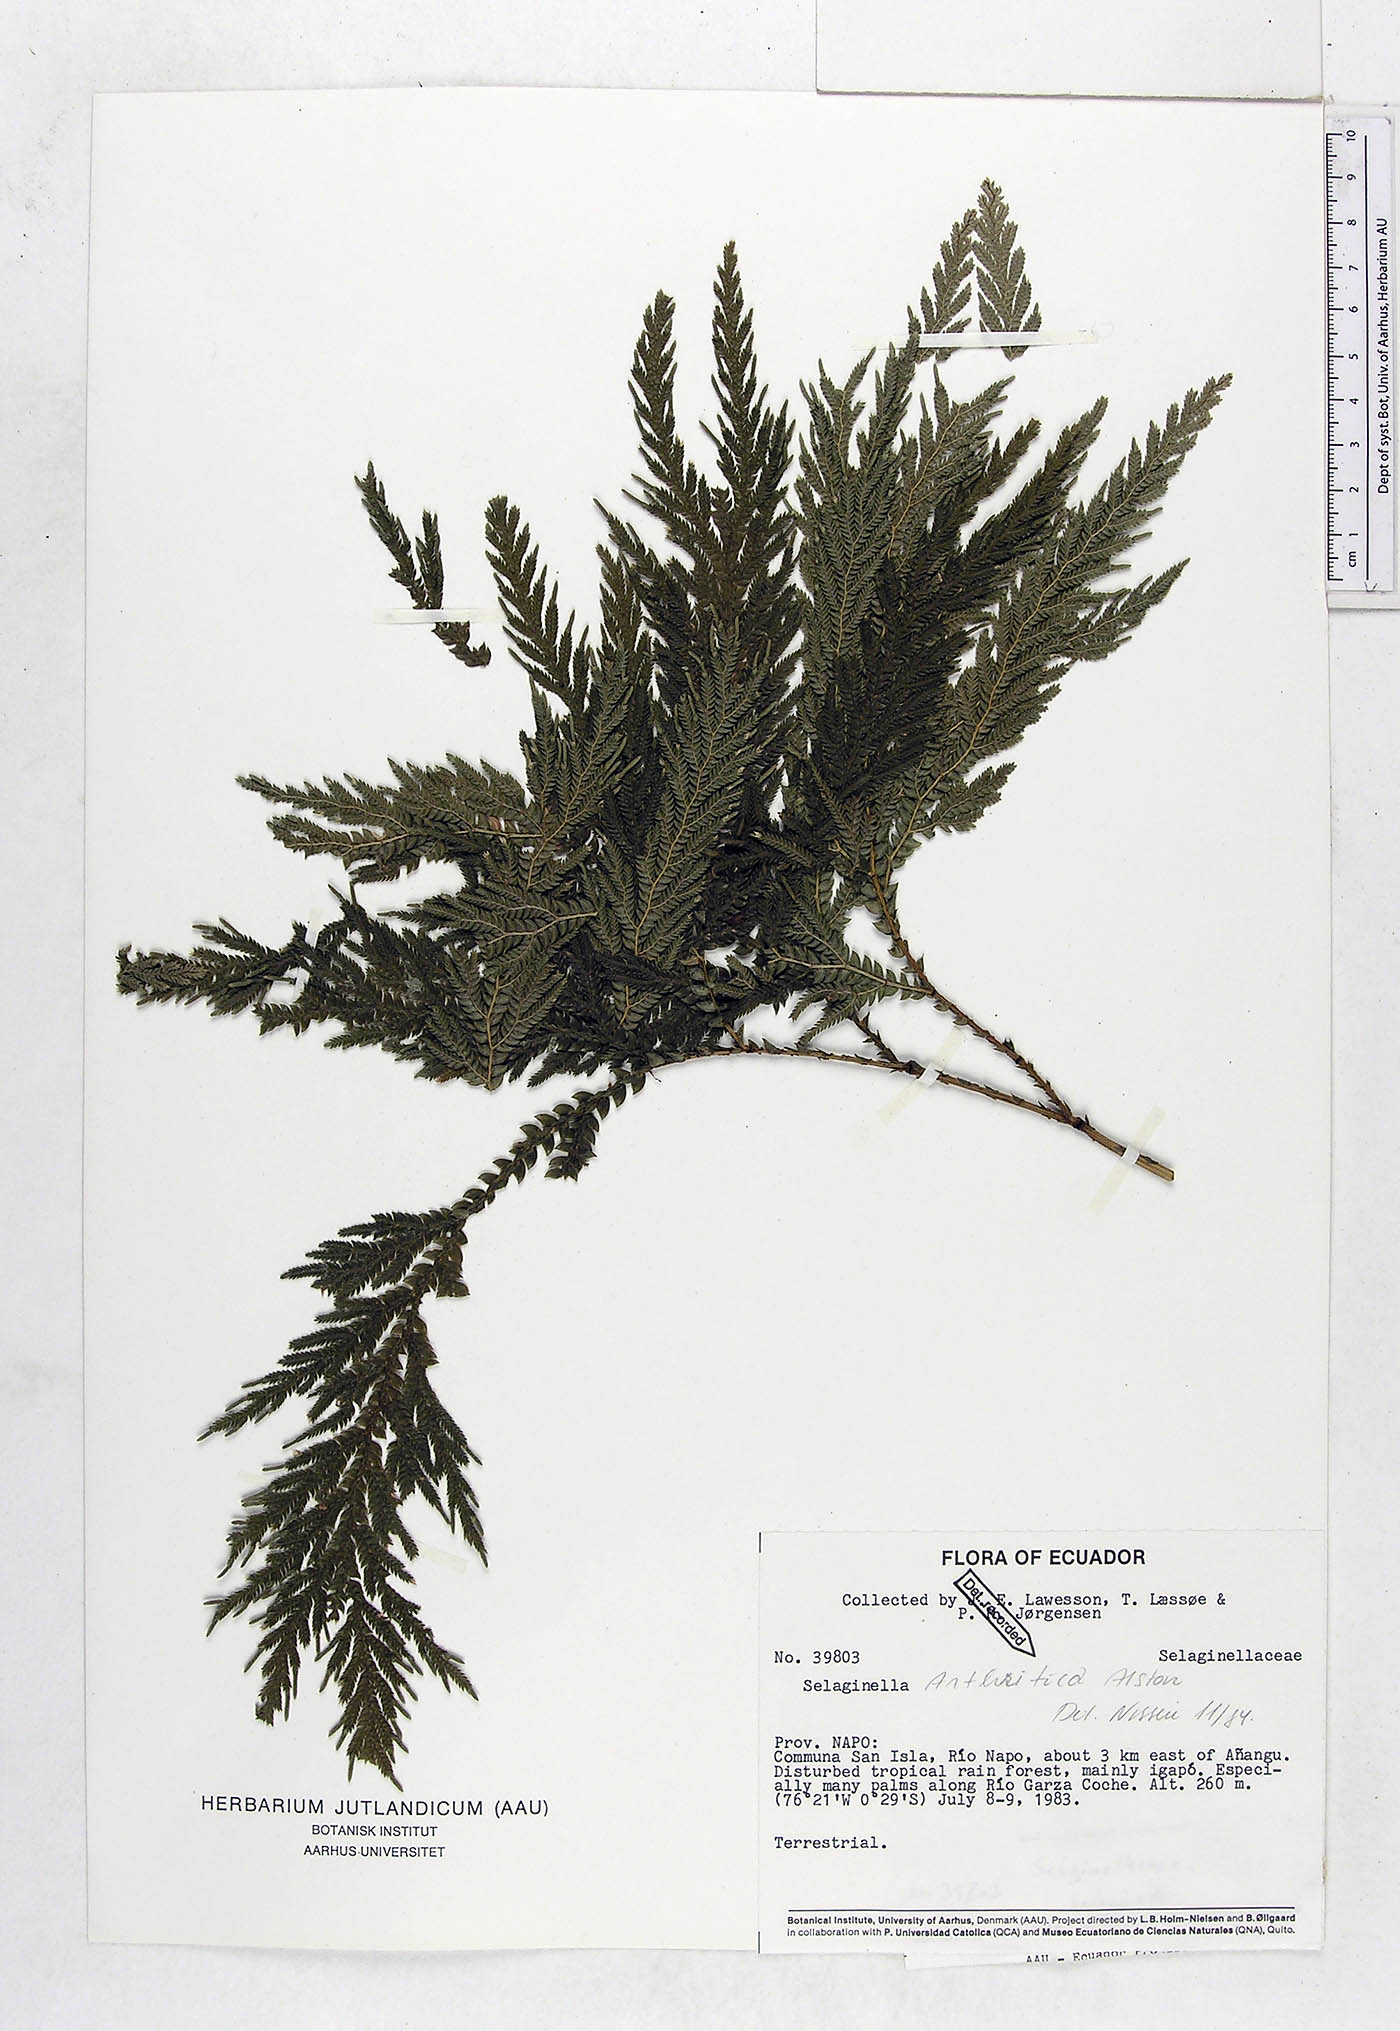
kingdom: Plantae
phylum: Tracheophyta
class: Lycopodiopsida
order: Selaginellales
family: Selaginellaceae
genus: Selaginella
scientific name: Selaginella arthritica
